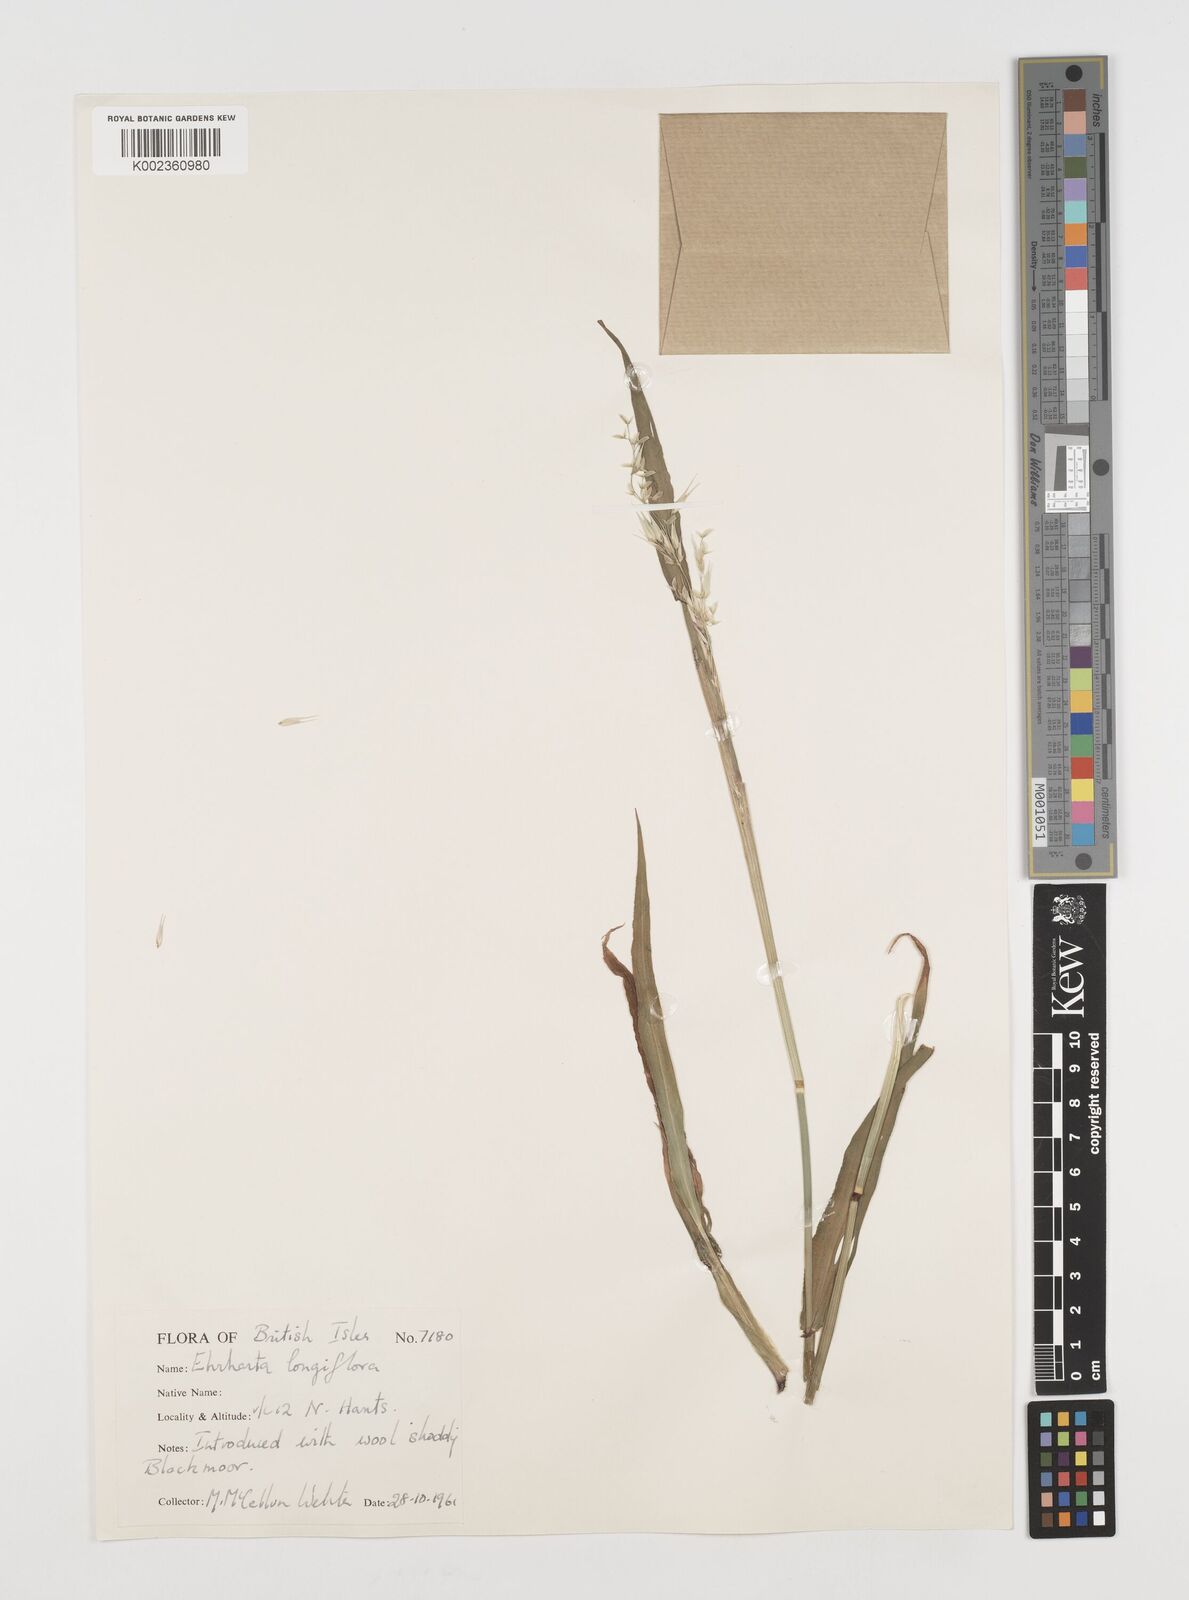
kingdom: Plantae
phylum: Tracheophyta
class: Liliopsida
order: Poales
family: Poaceae
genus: Ehrharta
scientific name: Ehrharta longiflora
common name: Longflowered veldtgrass
